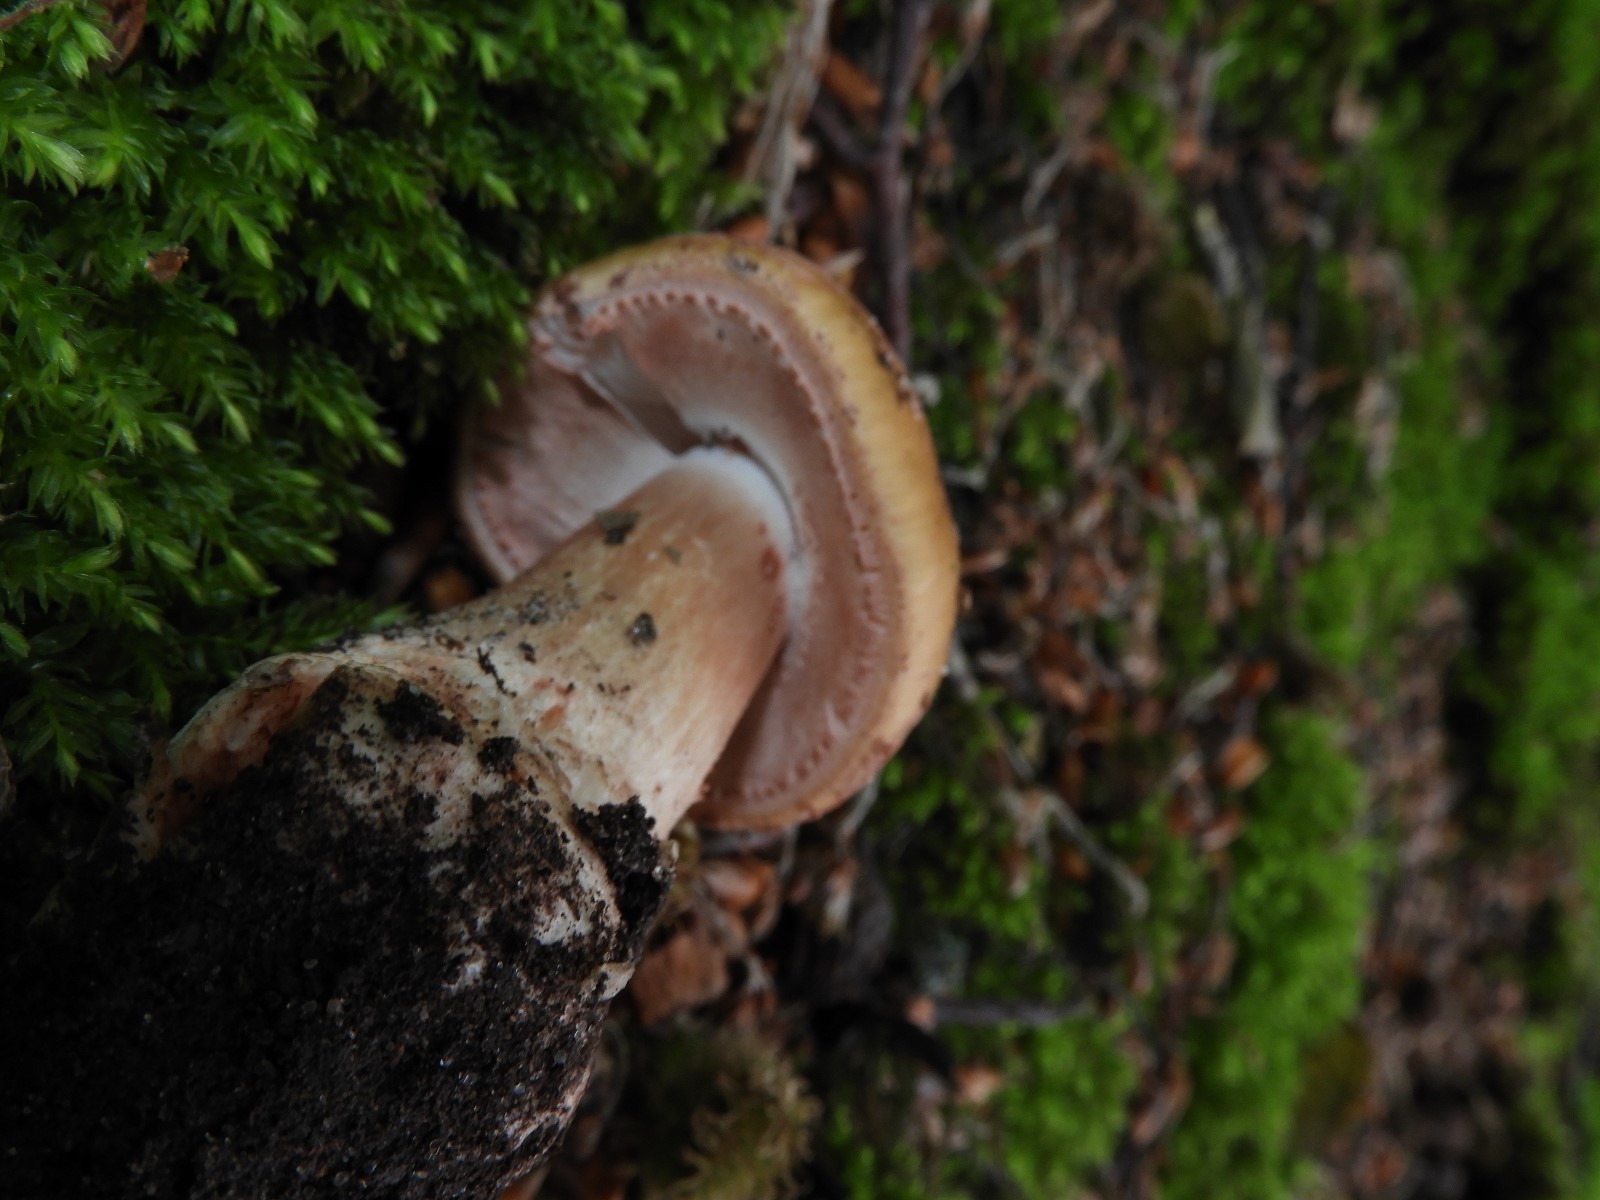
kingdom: Fungi
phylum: Basidiomycota
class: Agaricomycetes
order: Agaricales
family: Amanitaceae
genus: Amanita
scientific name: Amanita rubescens
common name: rødmende fluesvamp
